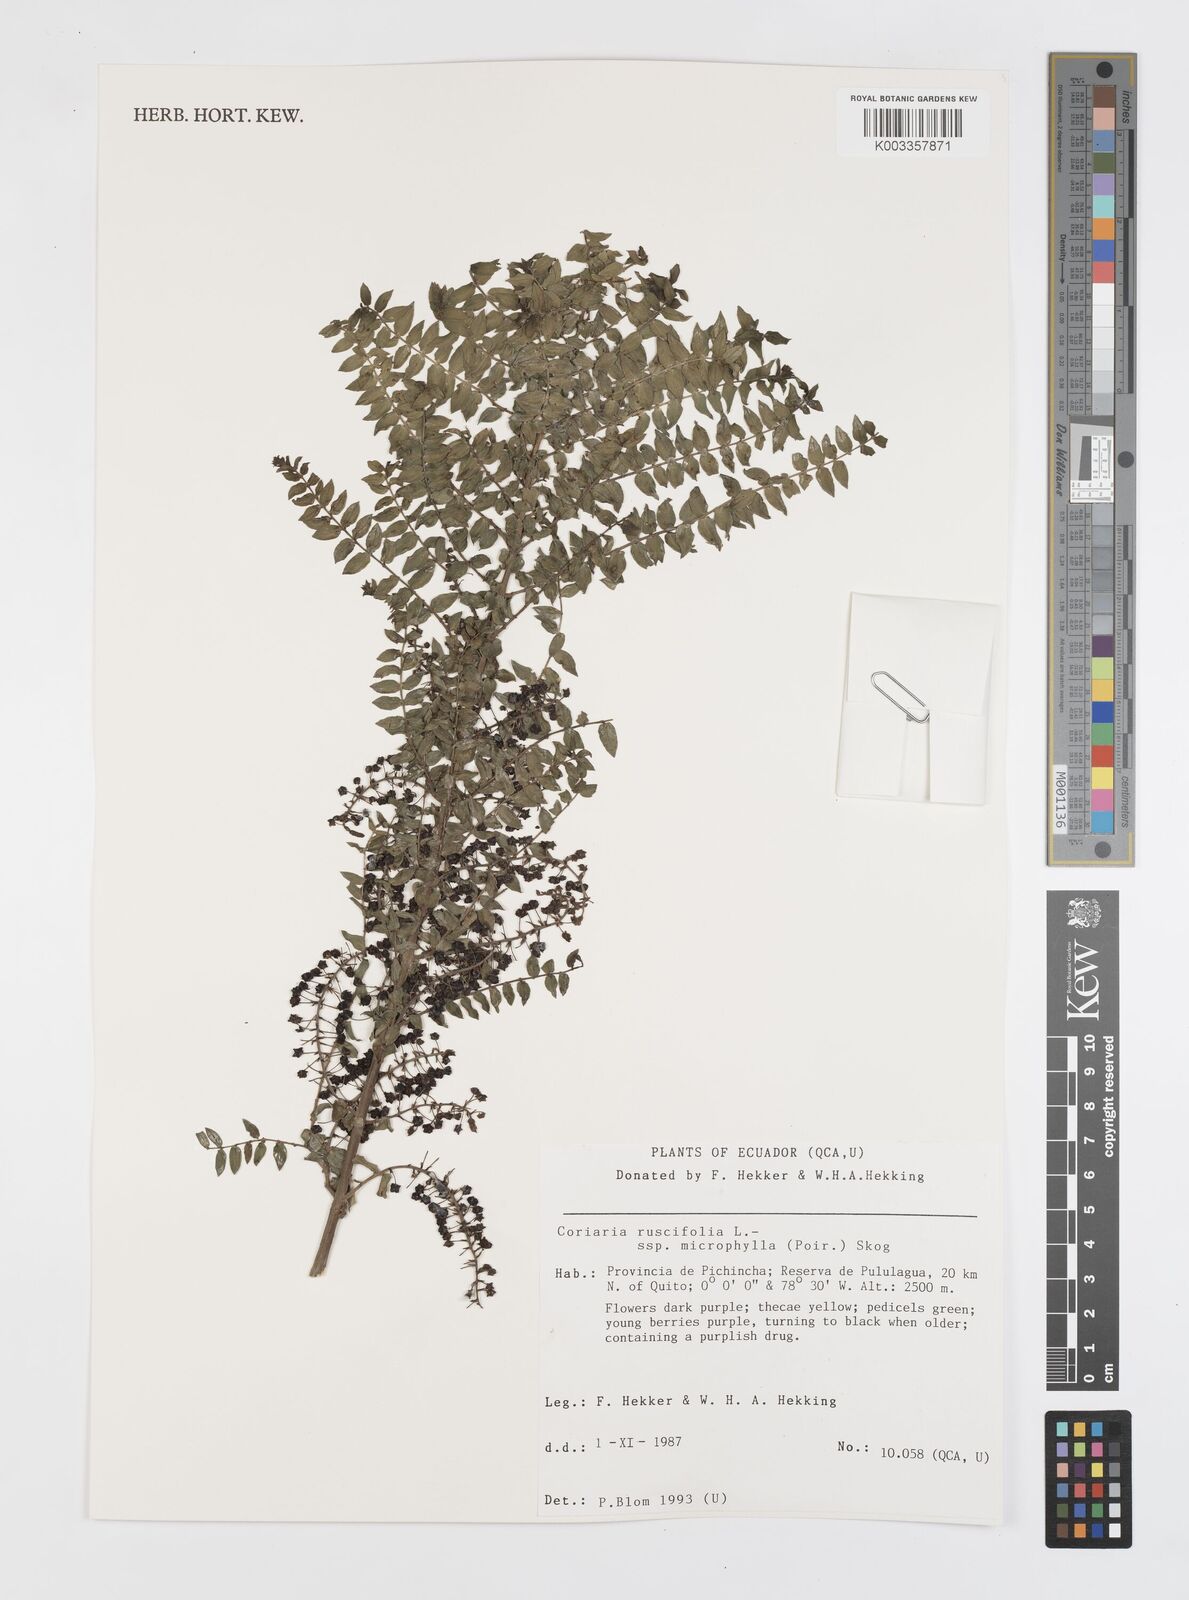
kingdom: Plantae
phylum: Tracheophyta
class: Magnoliopsida
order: Cucurbitales
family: Coriariaceae
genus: Coriaria
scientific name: Coriaria microphylla
